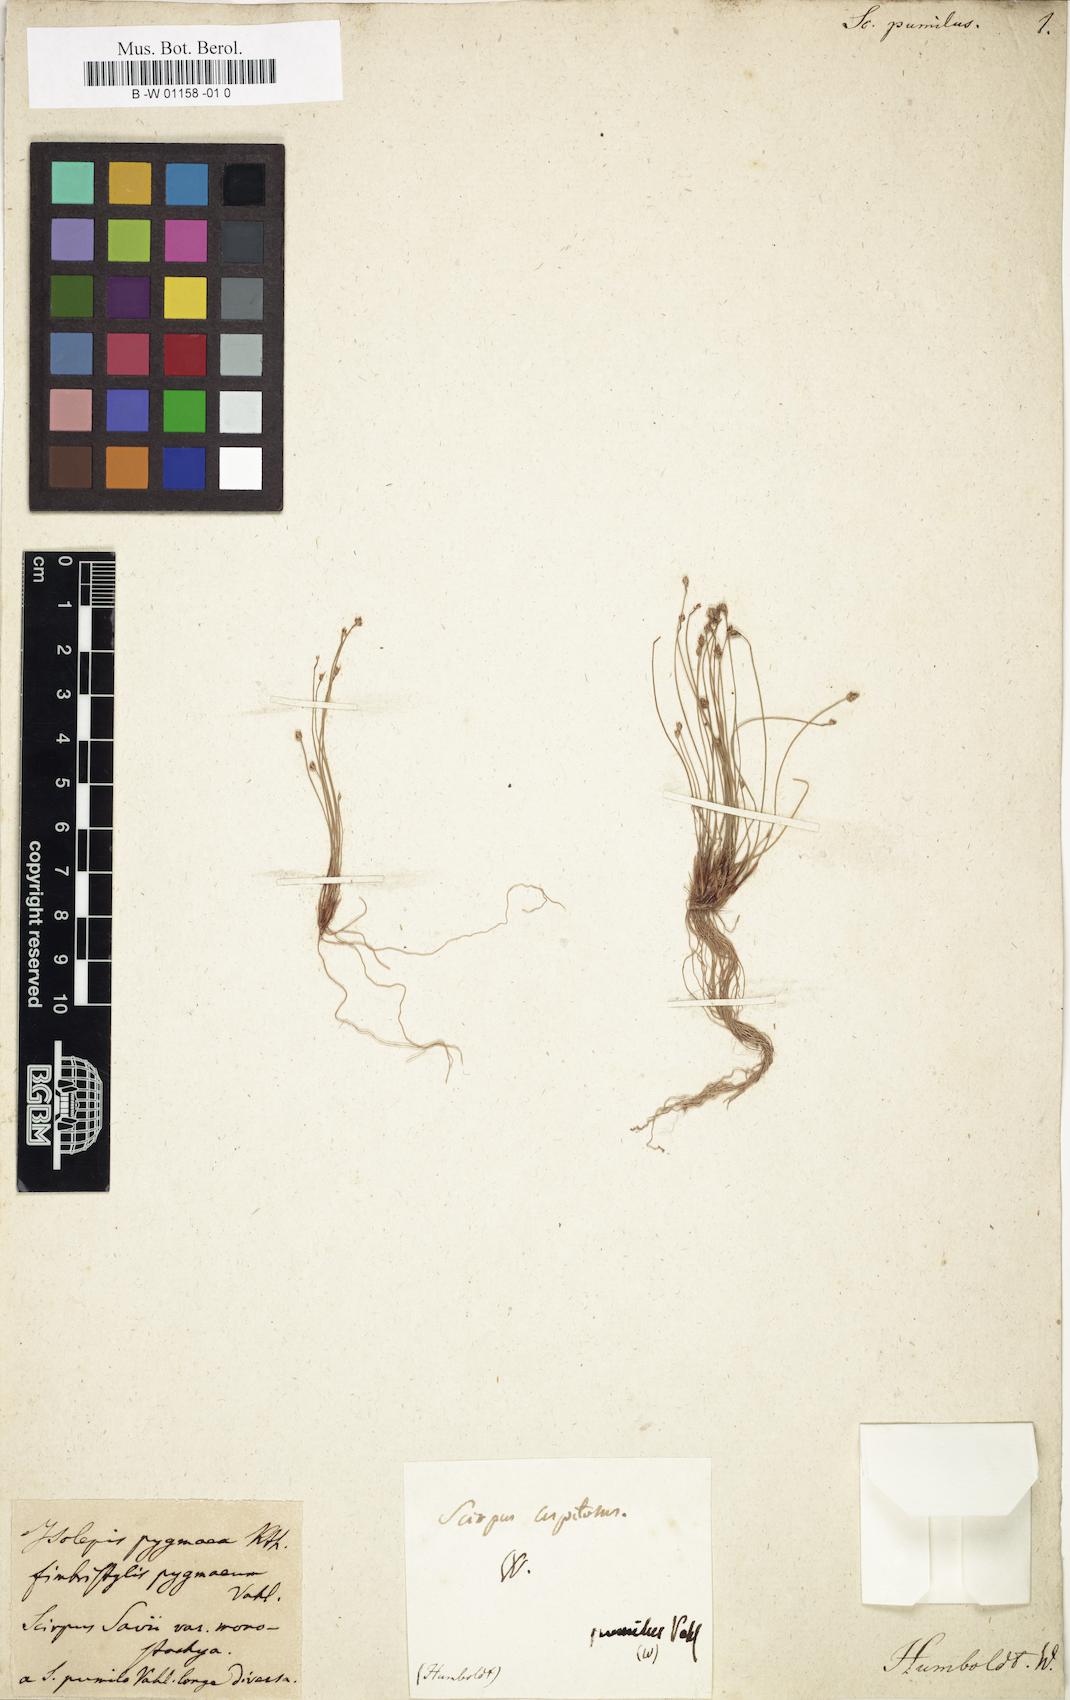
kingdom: Plantae
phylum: Tracheophyta
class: Liliopsida
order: Poales
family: Cyperaceae
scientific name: Cyperaceae
